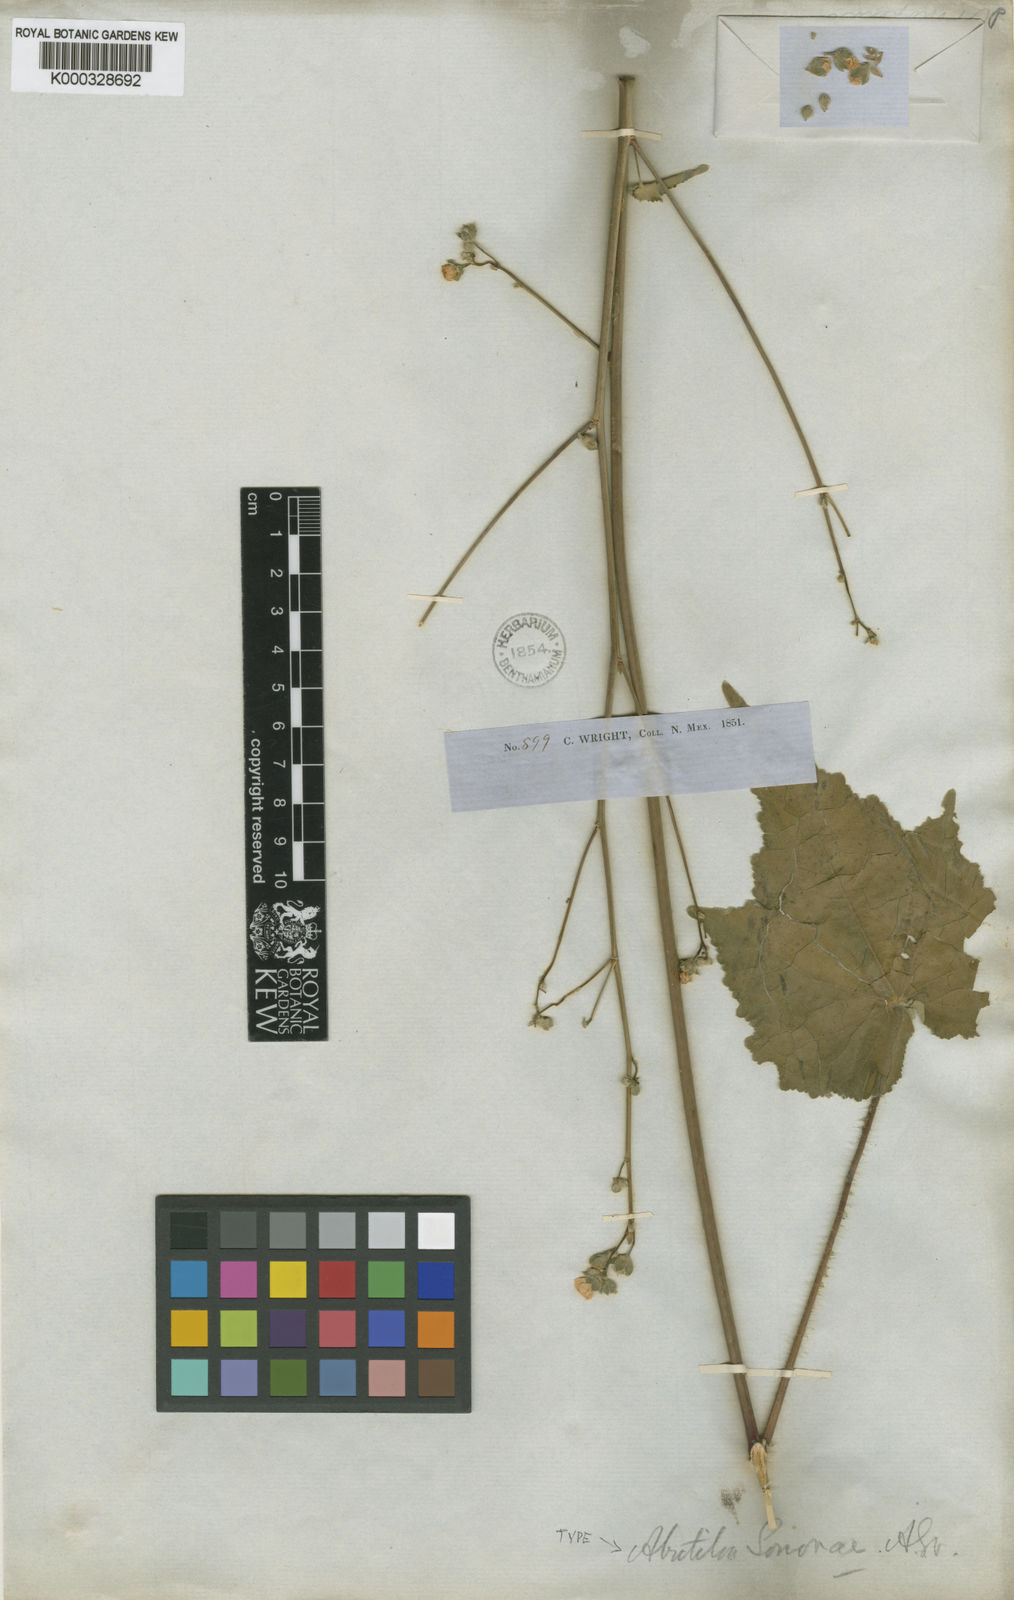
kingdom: Plantae
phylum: Tracheophyta
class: Magnoliopsida
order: Malvales
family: Malvaceae
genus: Abutilon
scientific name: Abutilon mollicomum
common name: Sonoran indian-mallow
